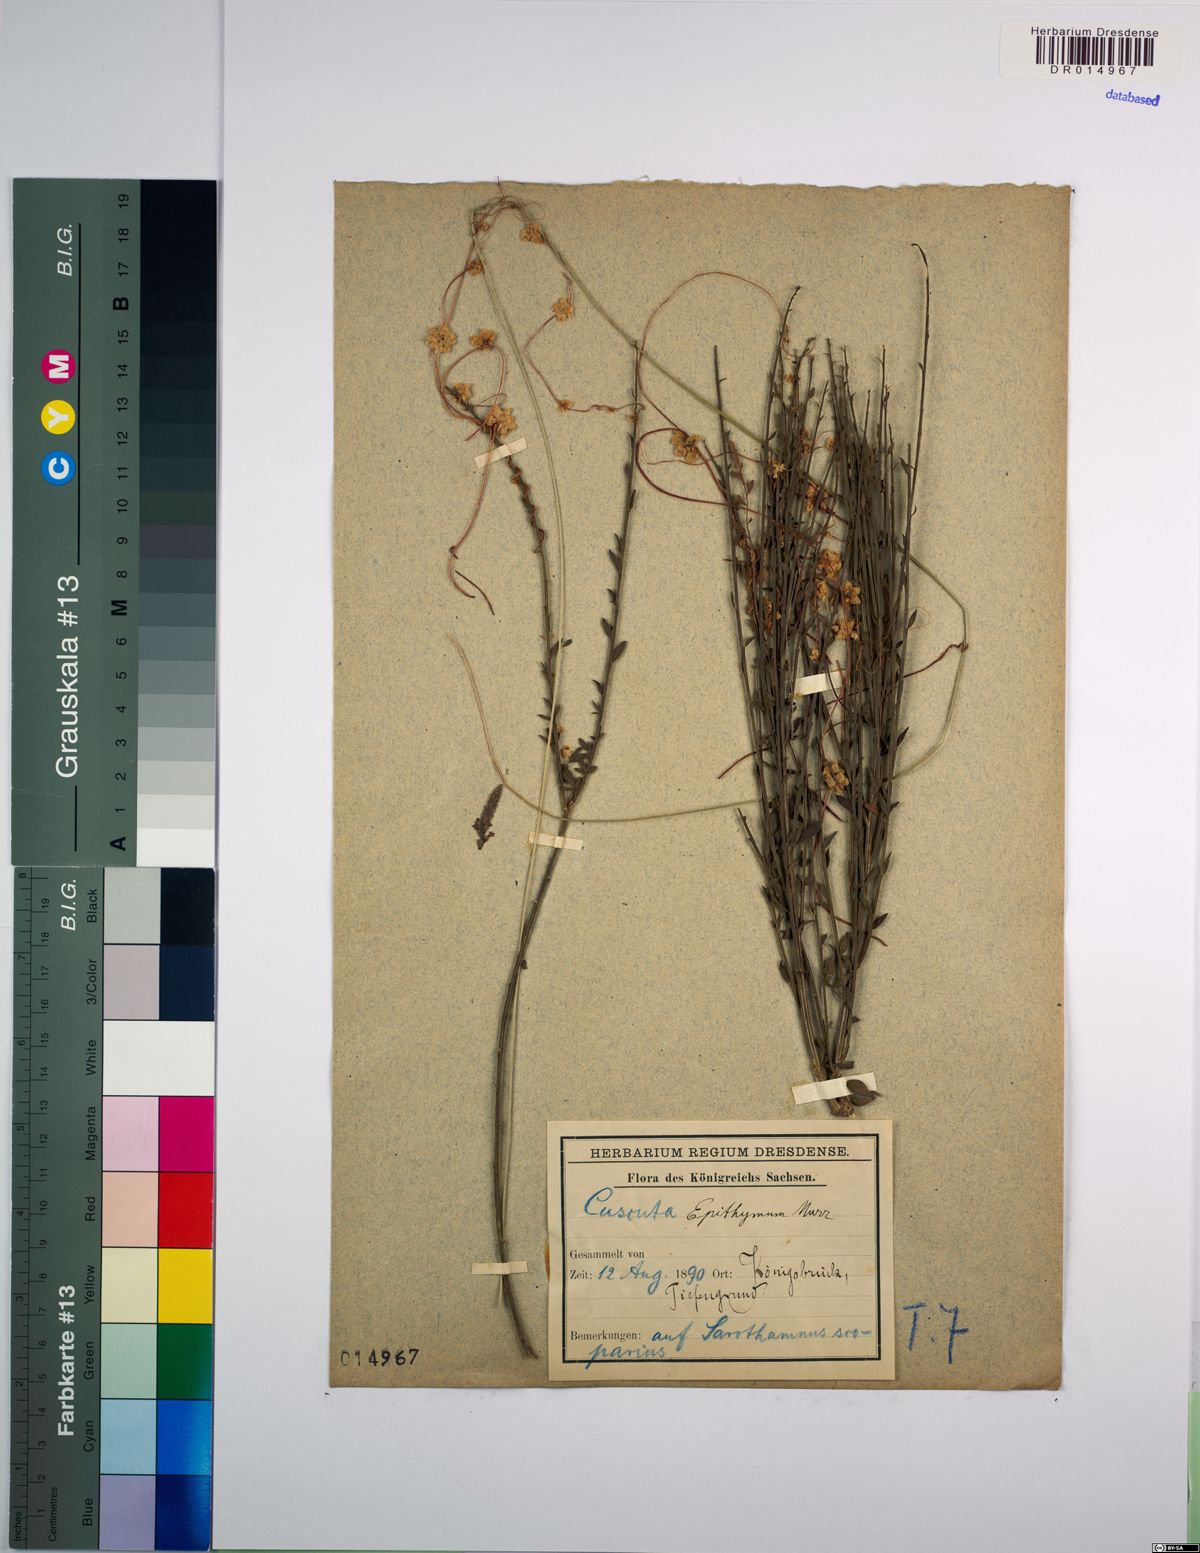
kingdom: Plantae
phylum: Tracheophyta
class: Magnoliopsida
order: Solanales
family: Convolvulaceae
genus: Cuscuta
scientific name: Cuscuta epithymum
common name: Clover dodder
